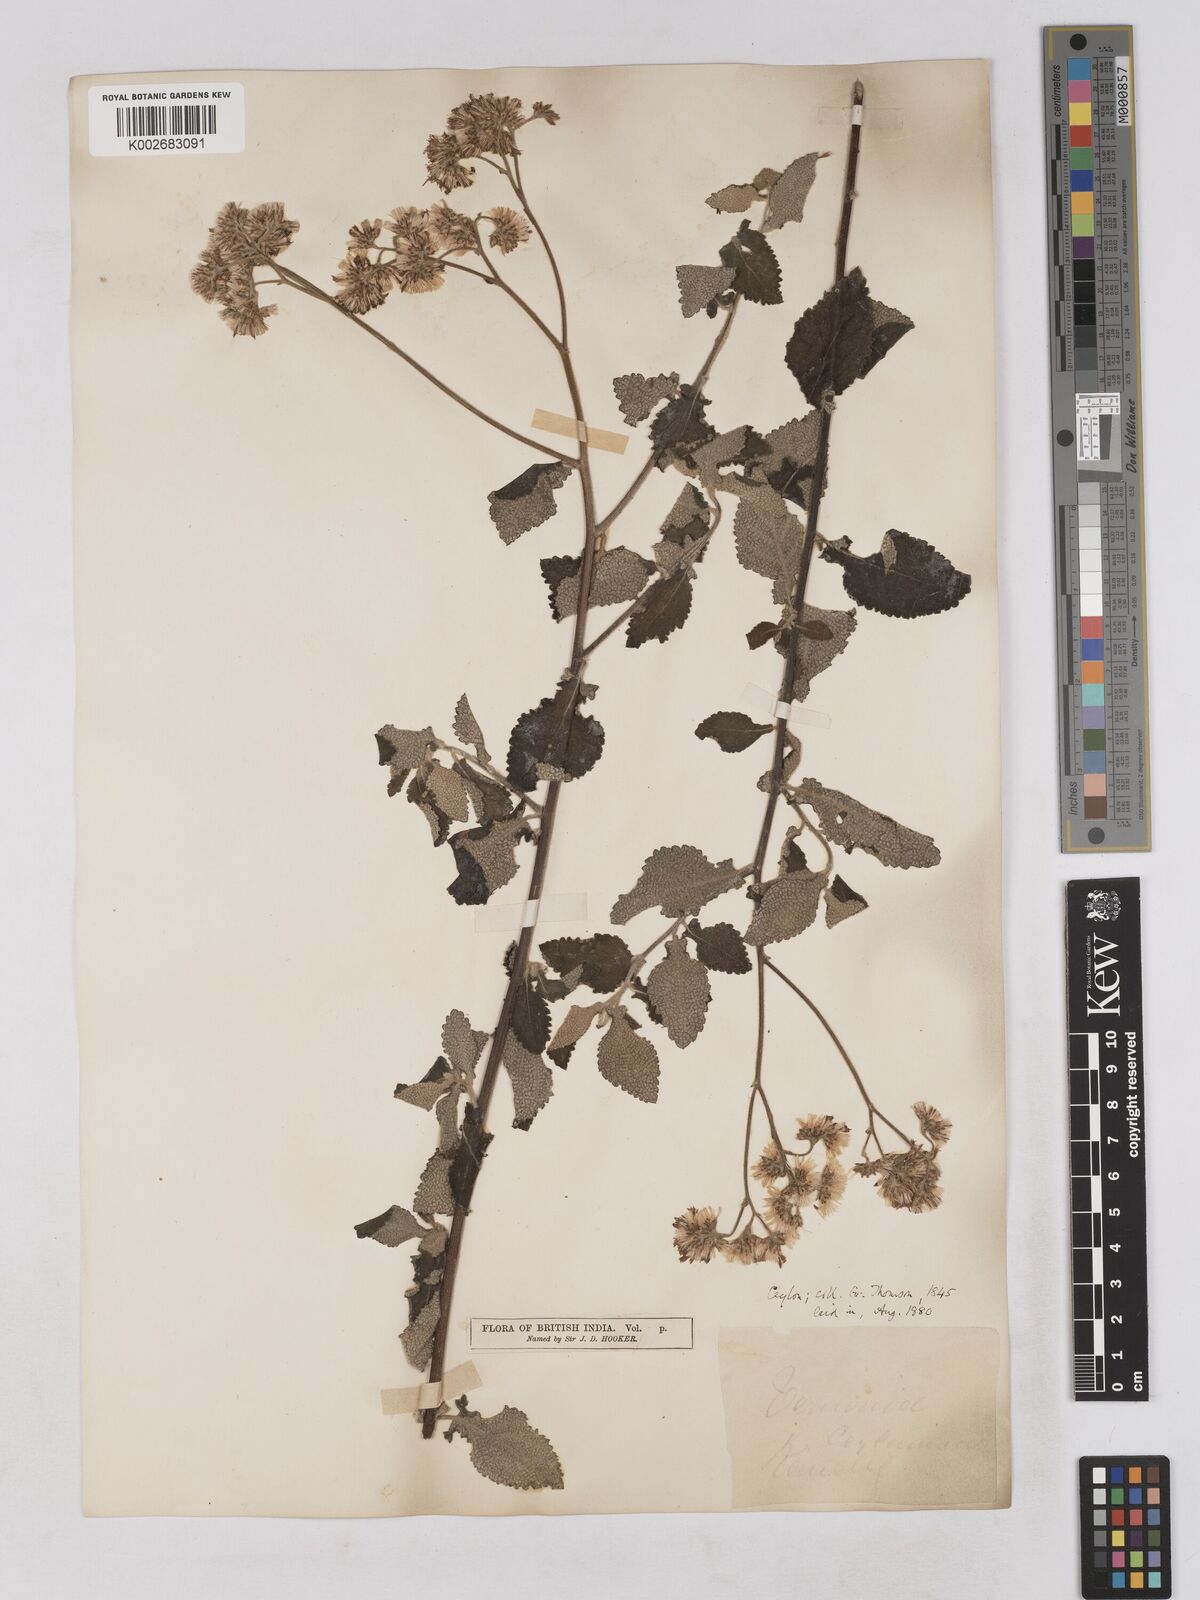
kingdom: Plantae
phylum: Tracheophyta
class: Magnoliopsida
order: Asterales
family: Asteraceae
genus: Jeffreycia
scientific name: Jeffreycia zeylanica
